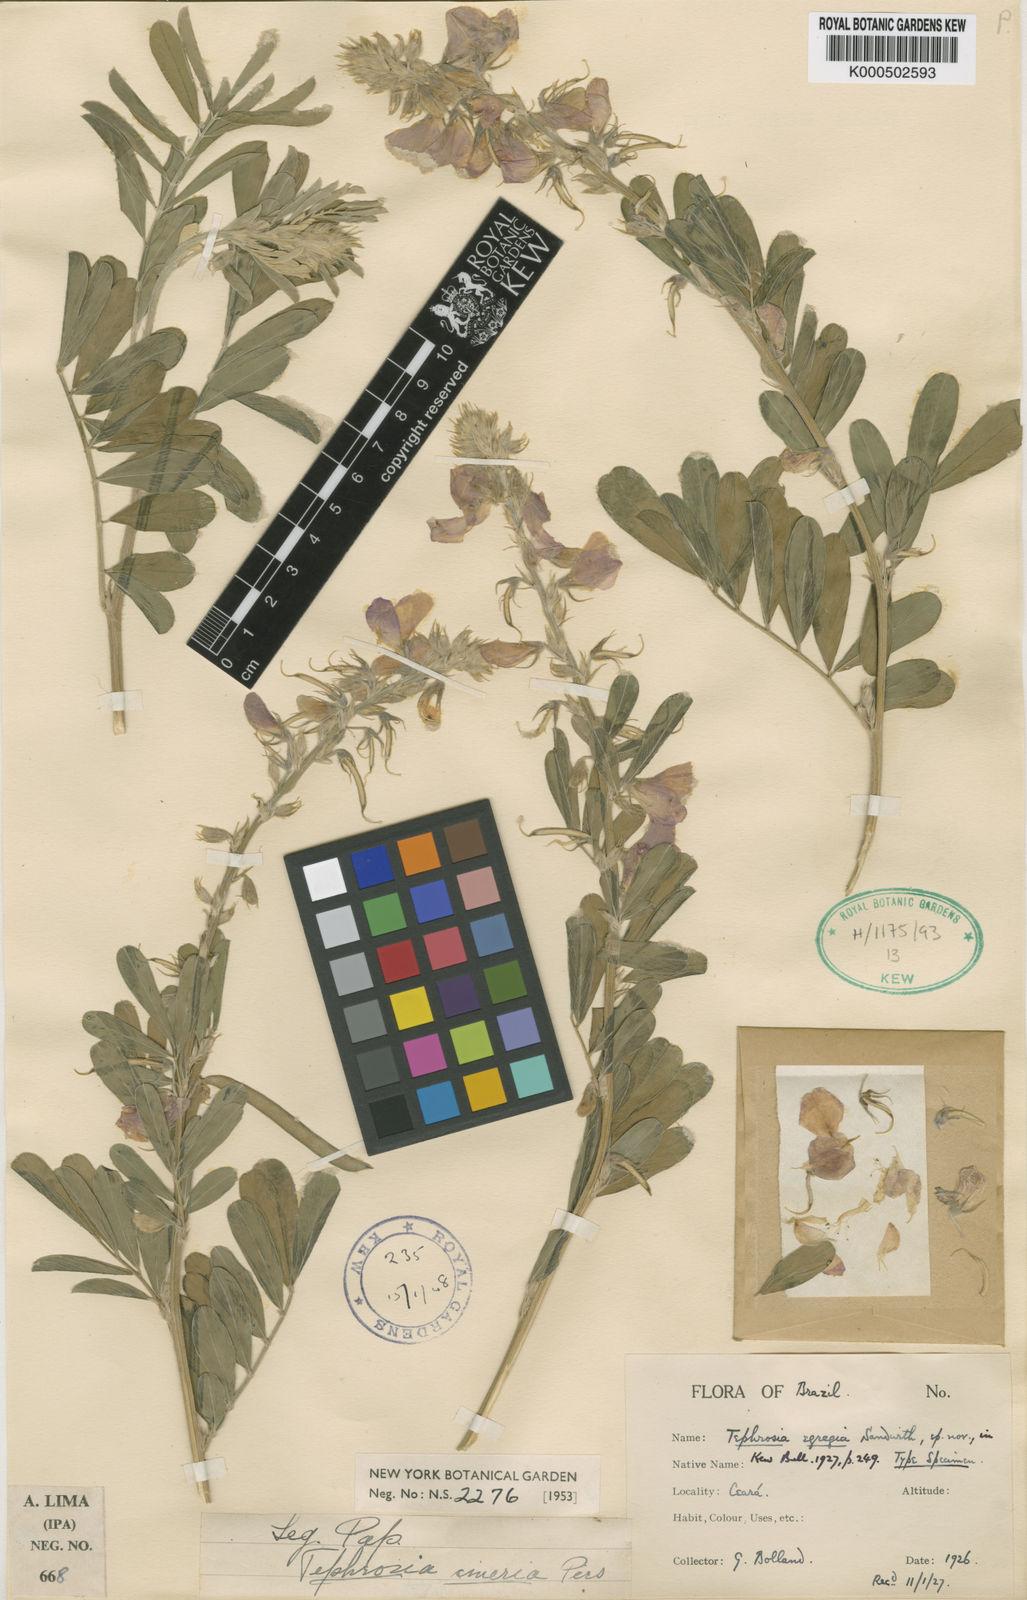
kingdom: Plantae
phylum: Tracheophyta
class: Magnoliopsida
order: Fabales
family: Fabaceae
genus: Tephrosia
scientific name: Tephrosia noctiflora
